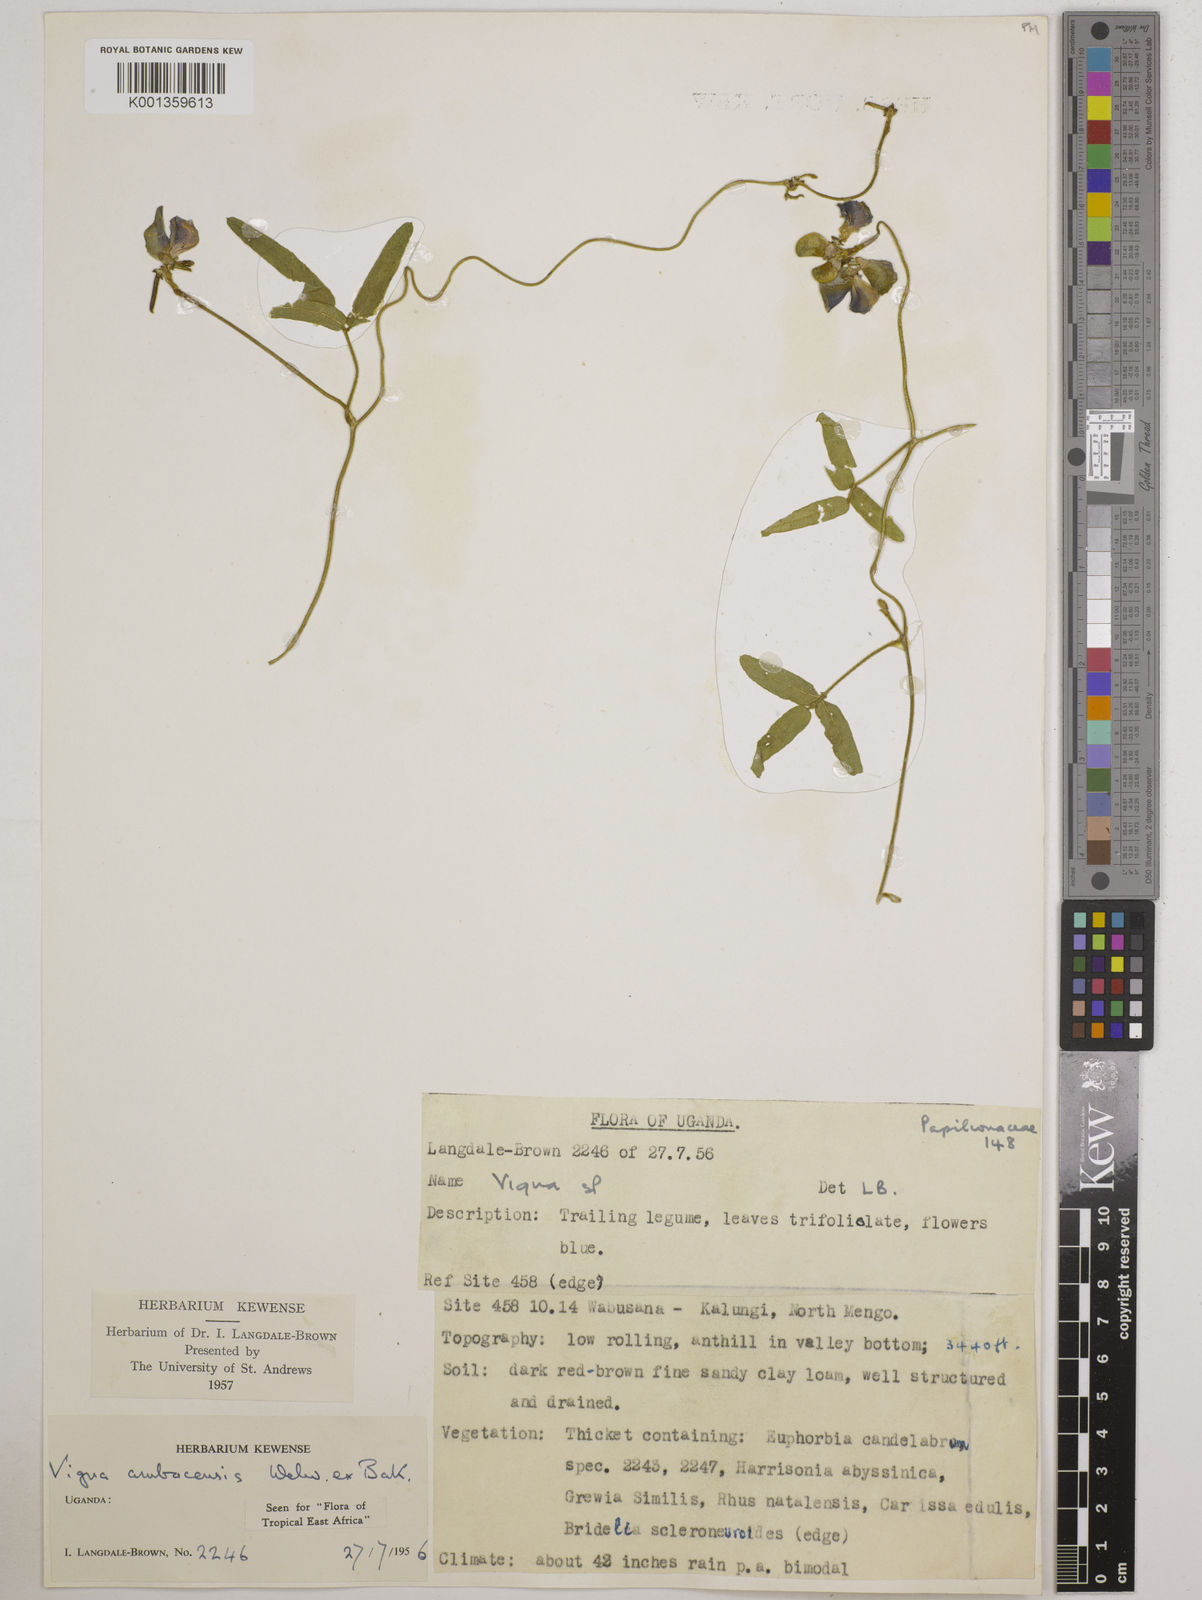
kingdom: Plantae
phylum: Tracheophyta
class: Magnoliopsida
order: Fabales
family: Fabaceae
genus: Vigna
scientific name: Vigna ambacensis
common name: Tsarkiyan zomo
